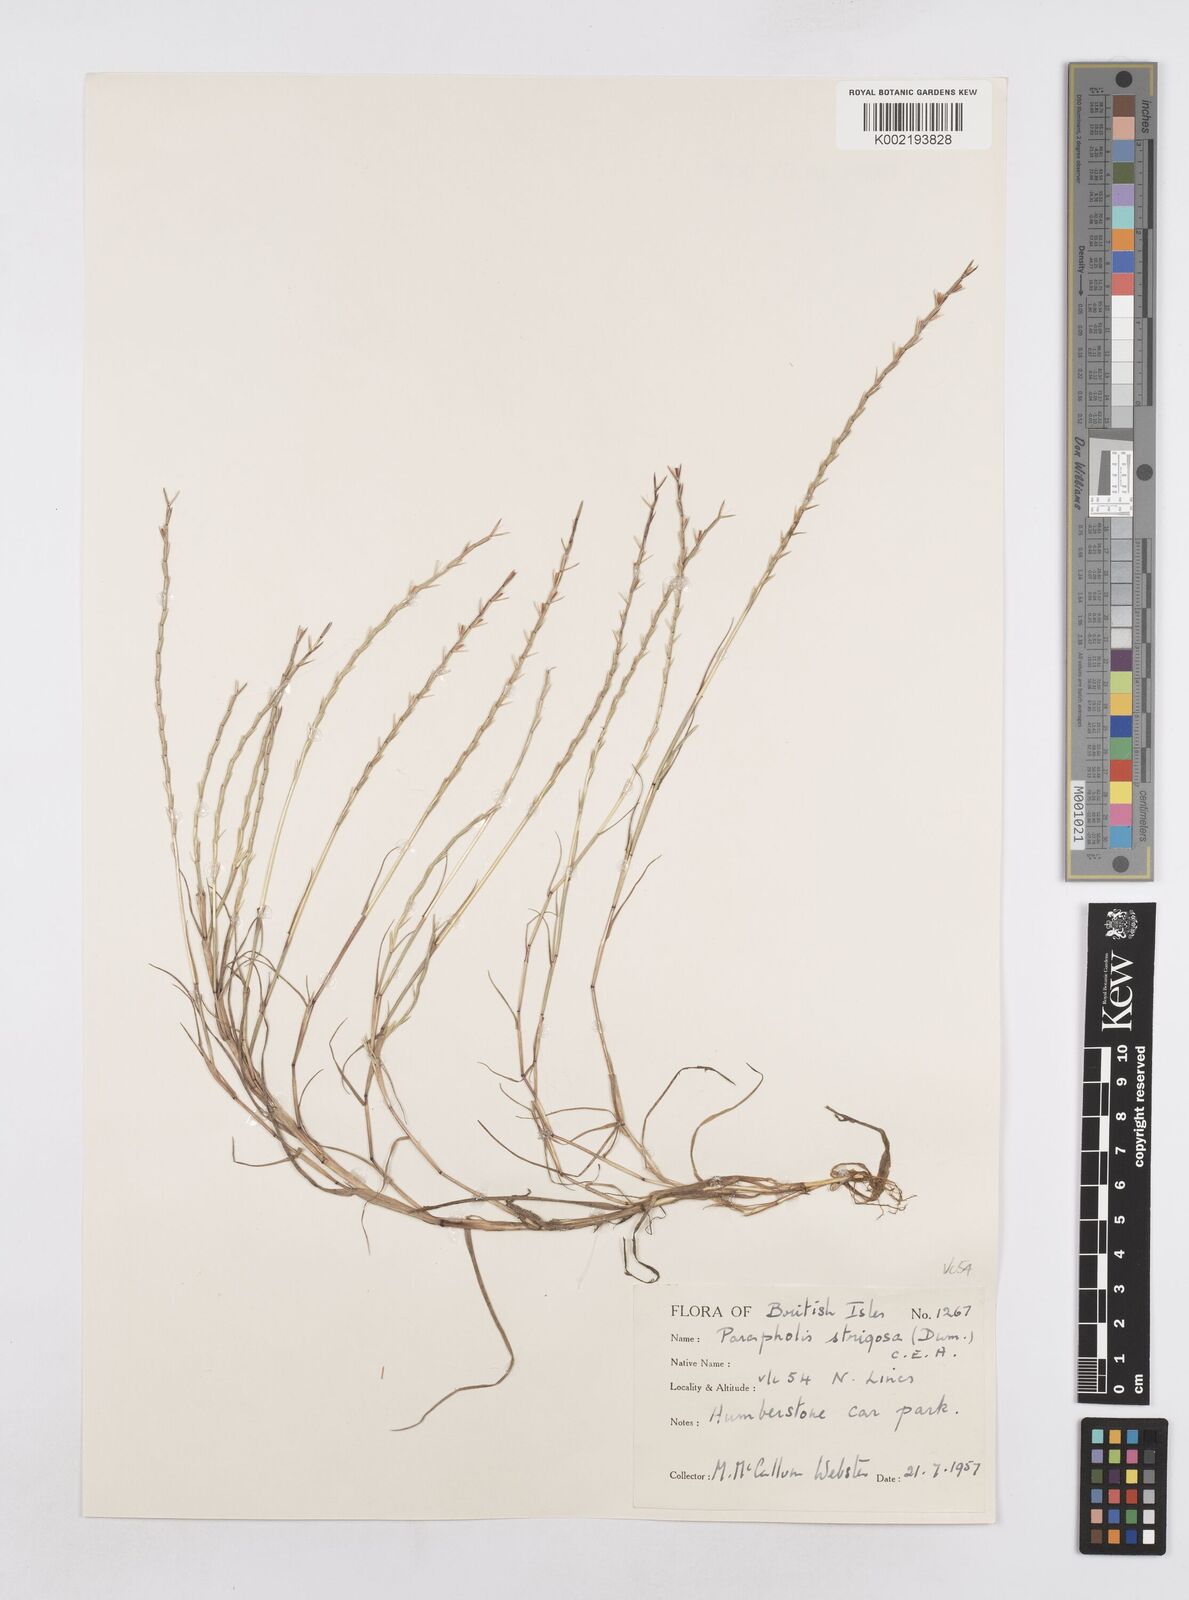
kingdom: Plantae
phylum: Tracheophyta
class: Liliopsida
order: Poales
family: Poaceae
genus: Parapholis
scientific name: Parapholis strigosa
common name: Hard-grass
